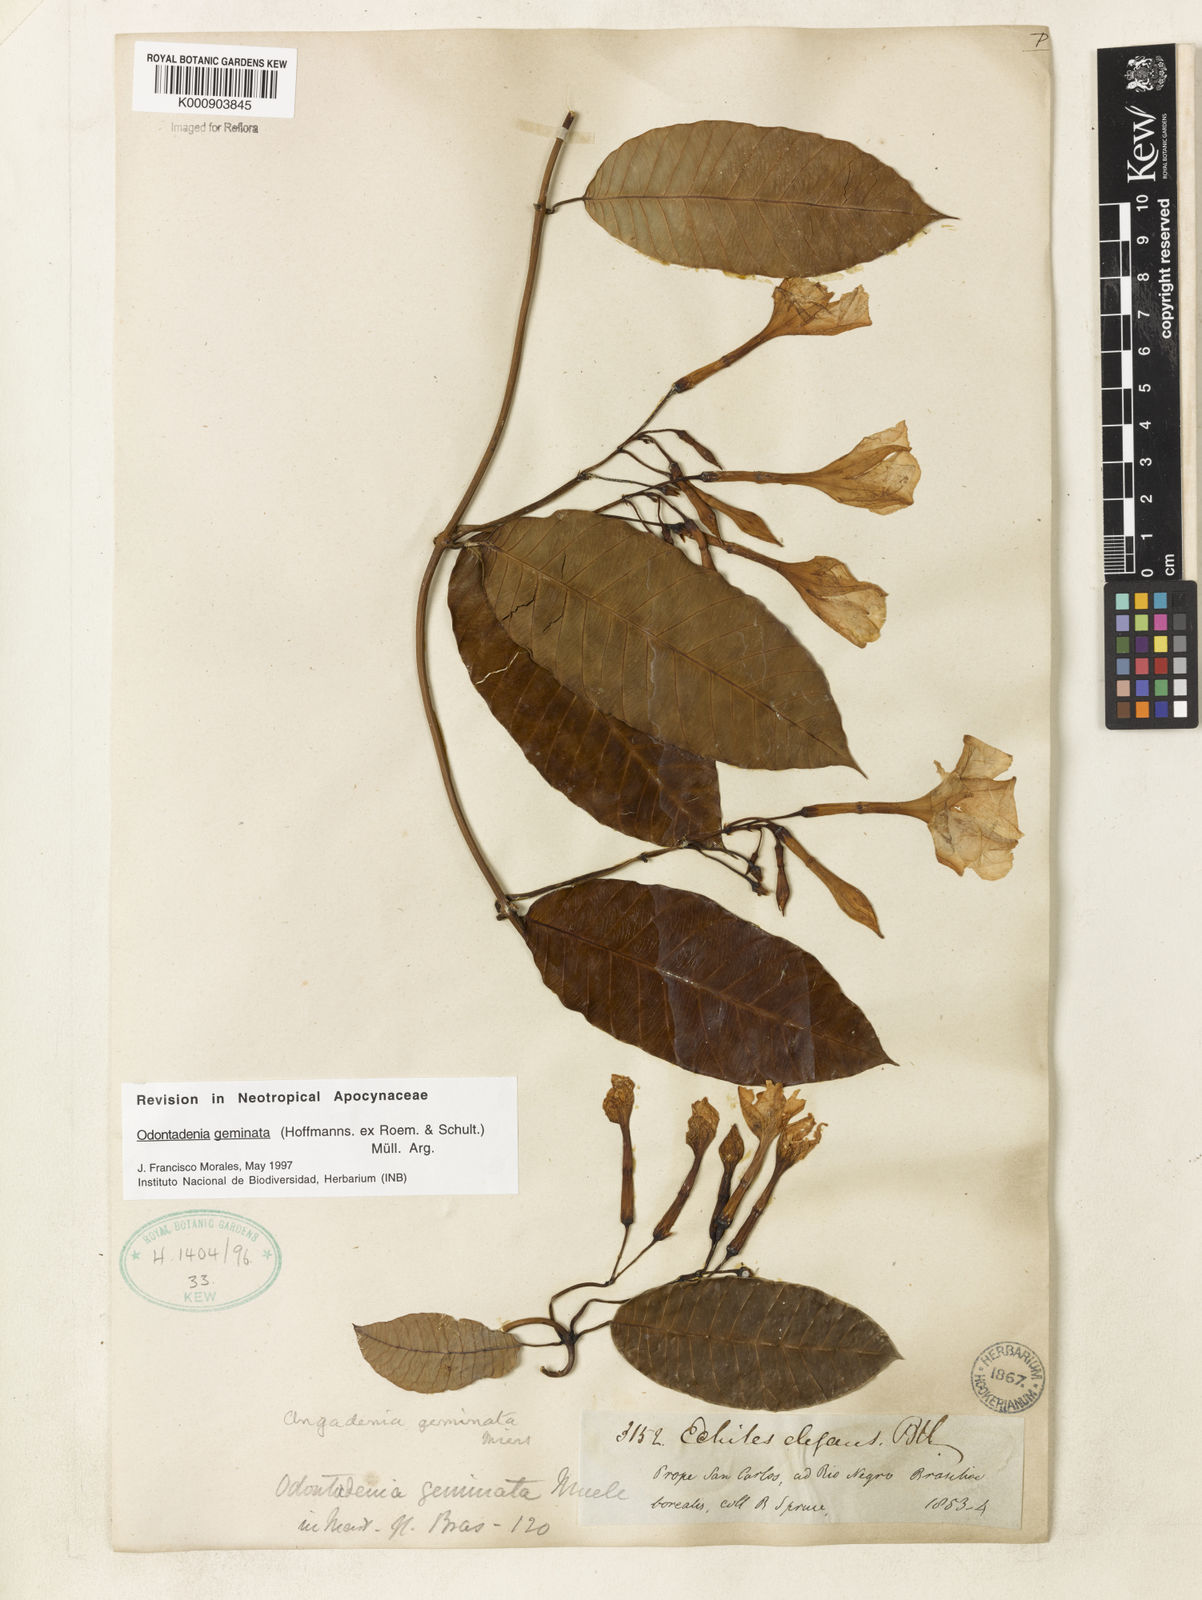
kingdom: Plantae
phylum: Tracheophyta
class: Magnoliopsida
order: Gentianales
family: Apocynaceae
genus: Odontadenia
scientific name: Odontadenia
